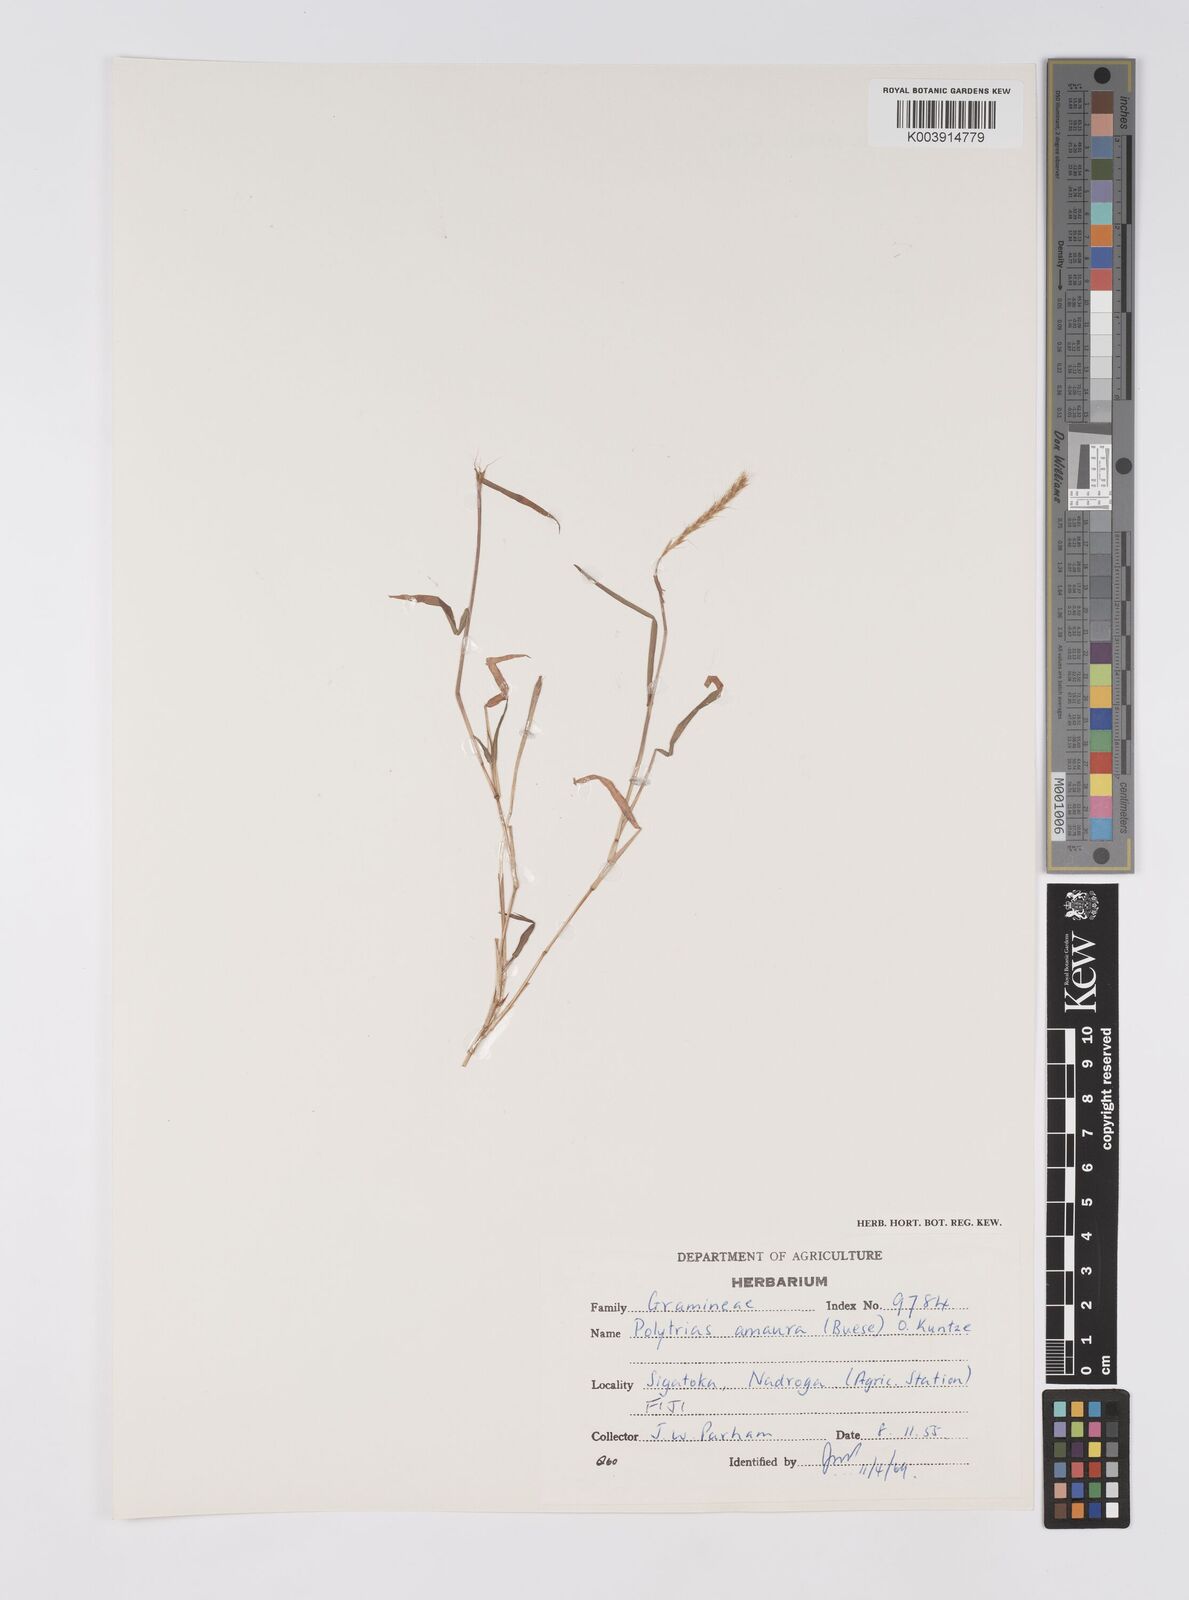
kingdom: Plantae
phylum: Tracheophyta
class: Liliopsida
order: Poales
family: Poaceae
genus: Polytrias
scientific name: Polytrias indica
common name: Indian murainagrass
